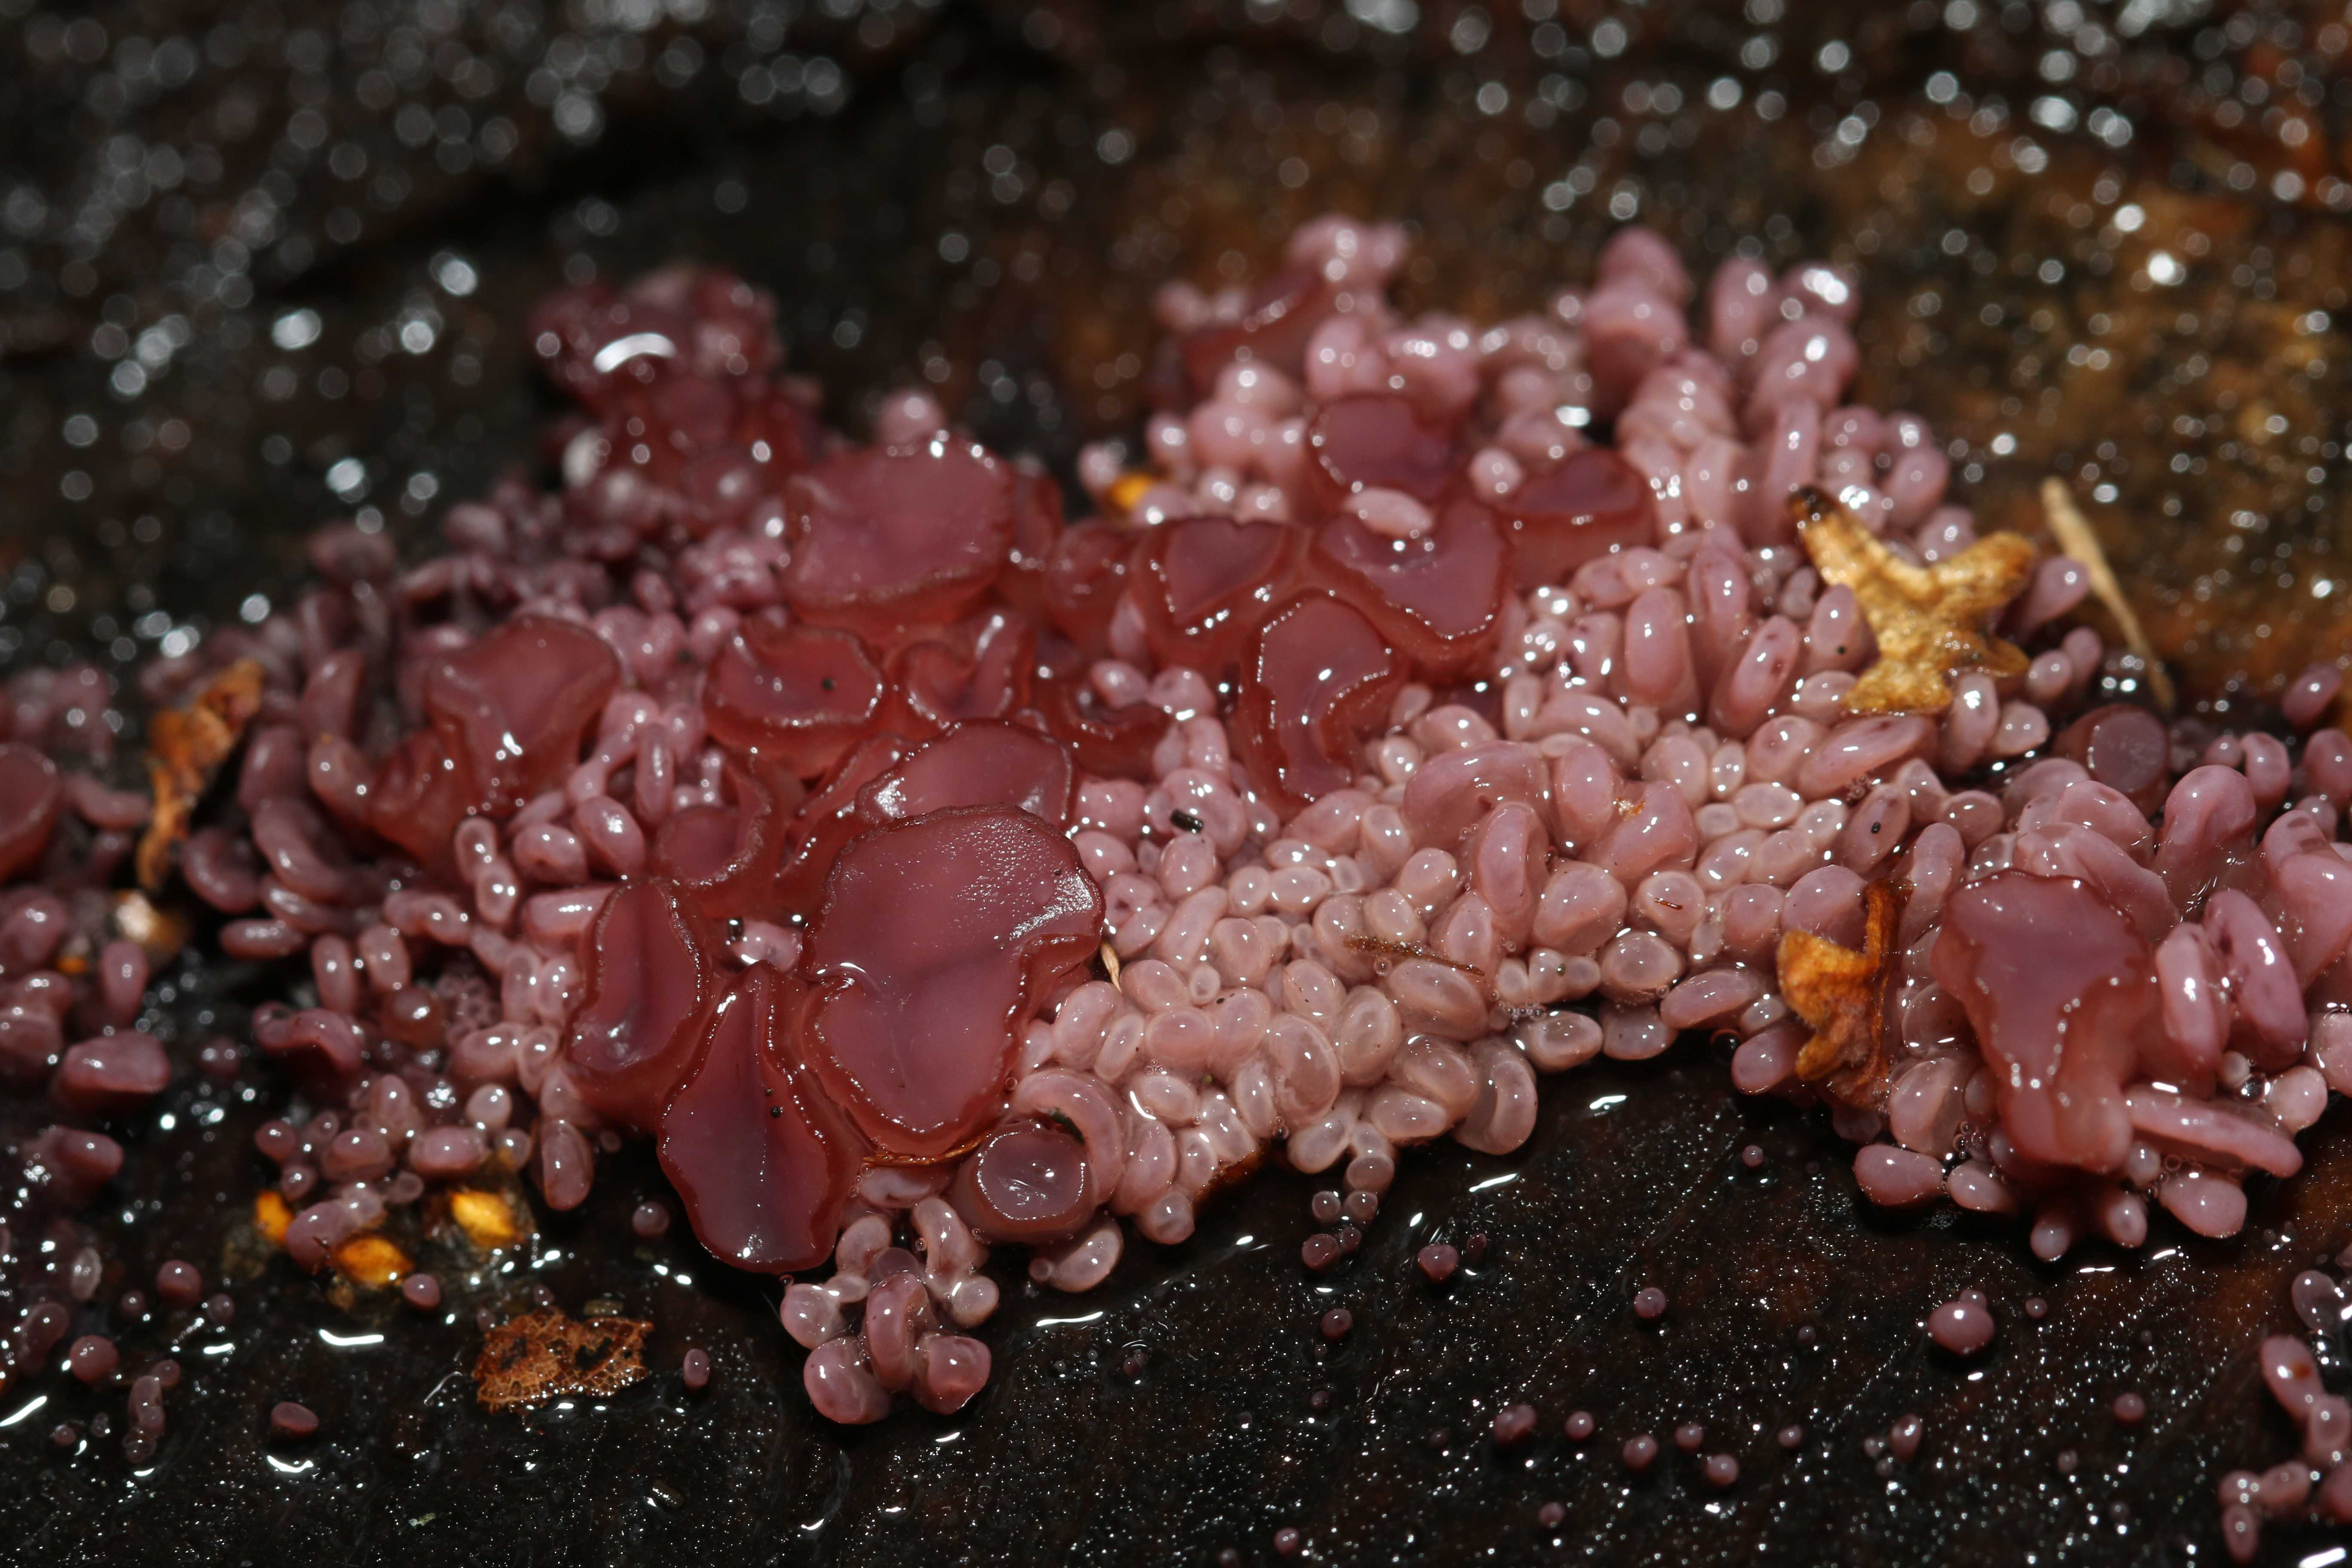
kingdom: Fungi
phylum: Ascomycota
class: Leotiomycetes
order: Helotiales
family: Gelatinodiscaceae
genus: Ascocoryne
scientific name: Ascocoryne sarcoides
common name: rødlilla sejskive
